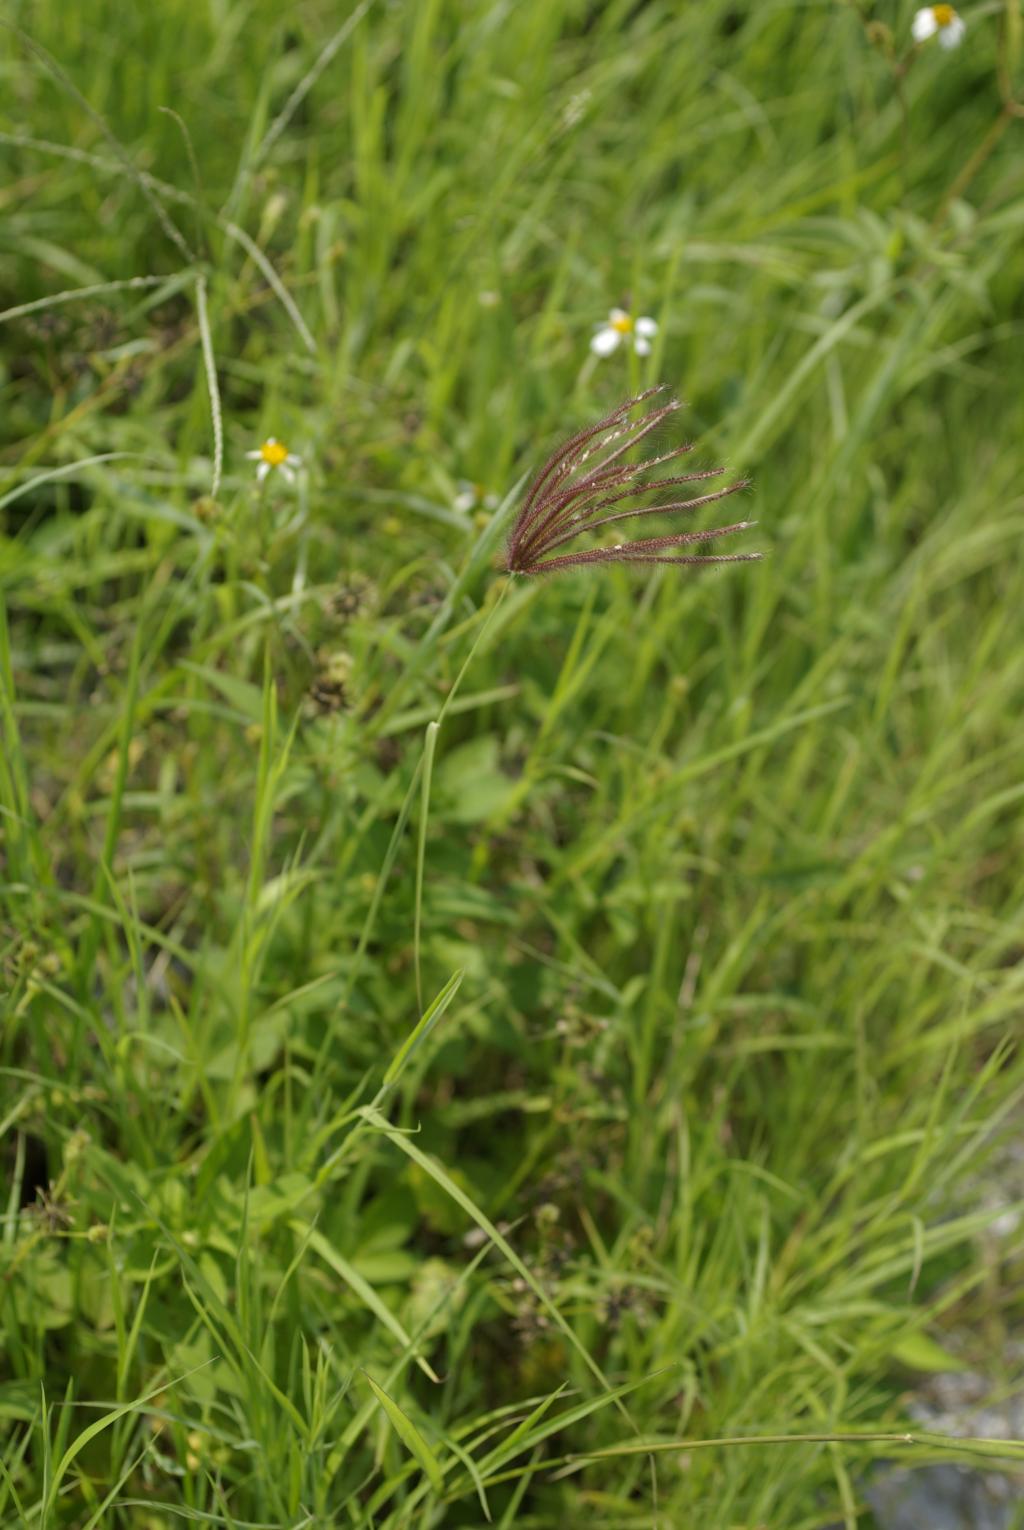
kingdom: Plantae
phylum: Tracheophyta
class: Liliopsida
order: Poales
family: Poaceae
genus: Chloris
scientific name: Chloris barbata
